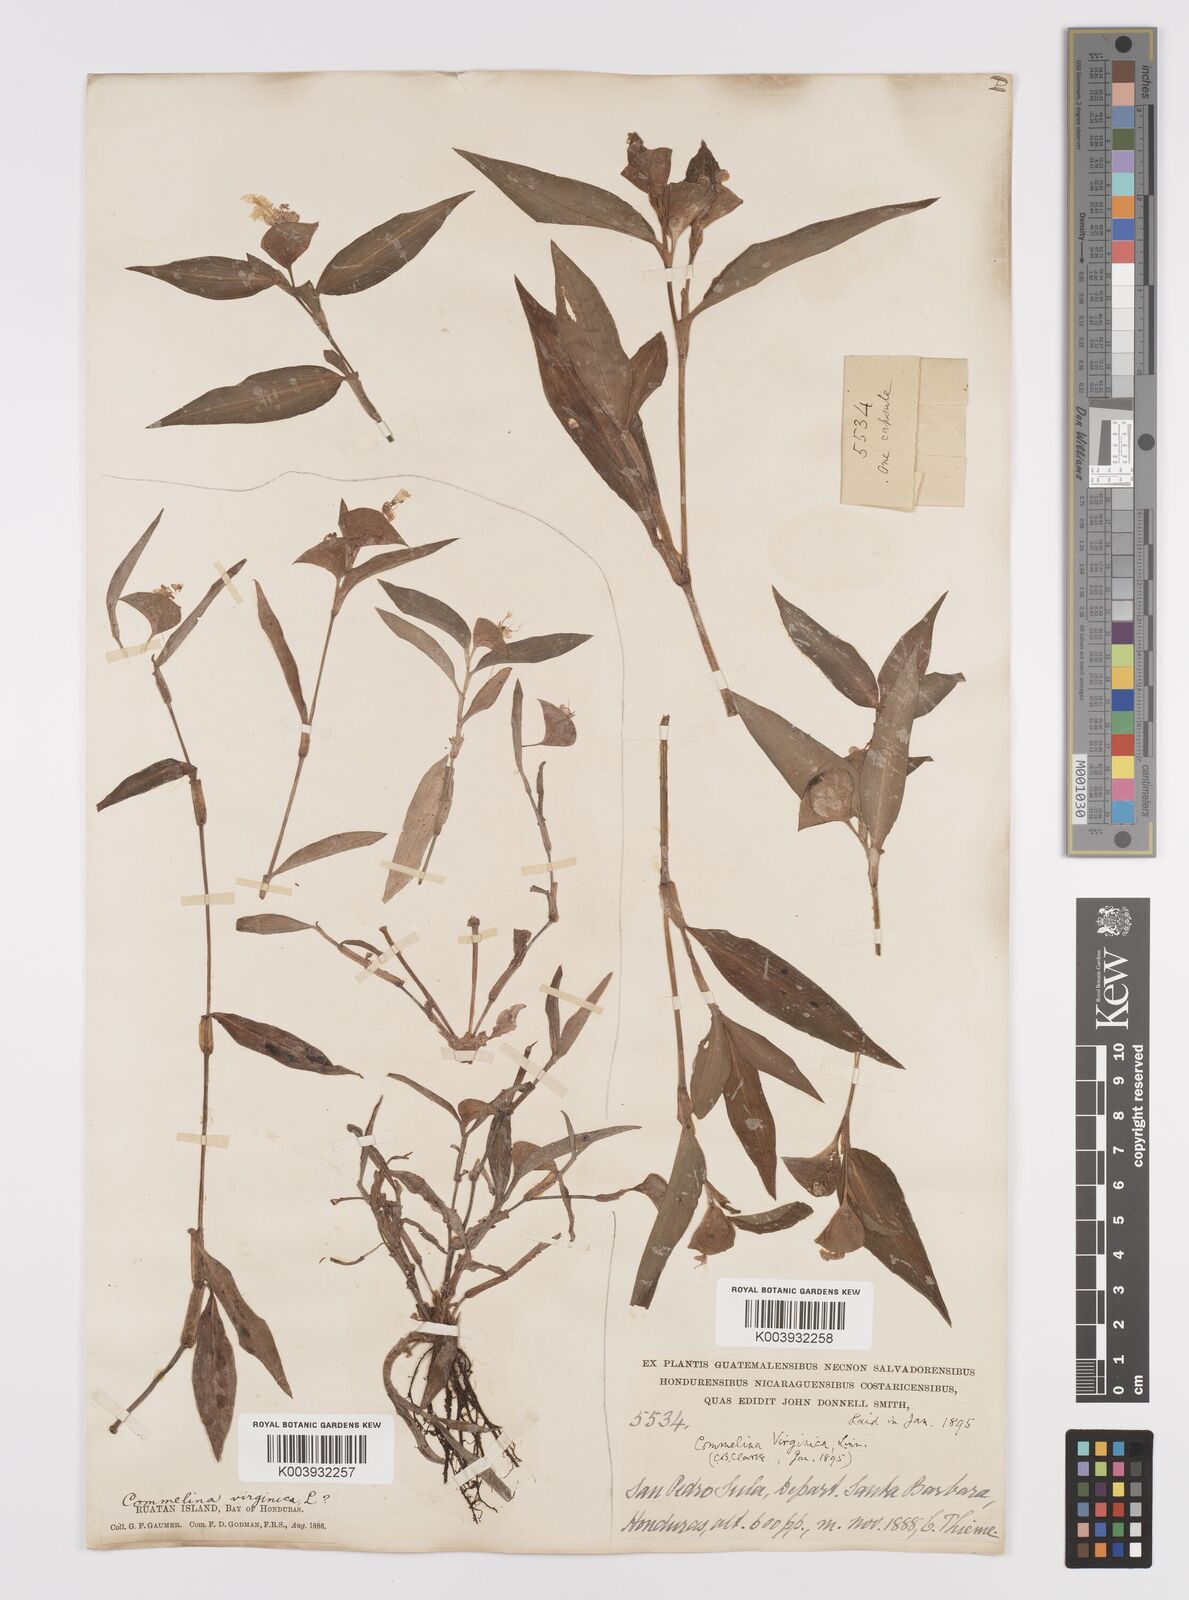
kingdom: Plantae
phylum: Tracheophyta
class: Liliopsida
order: Commelinales
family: Commelinaceae
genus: Commelina
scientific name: Commelina erecta
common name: Blousel blommetjie
